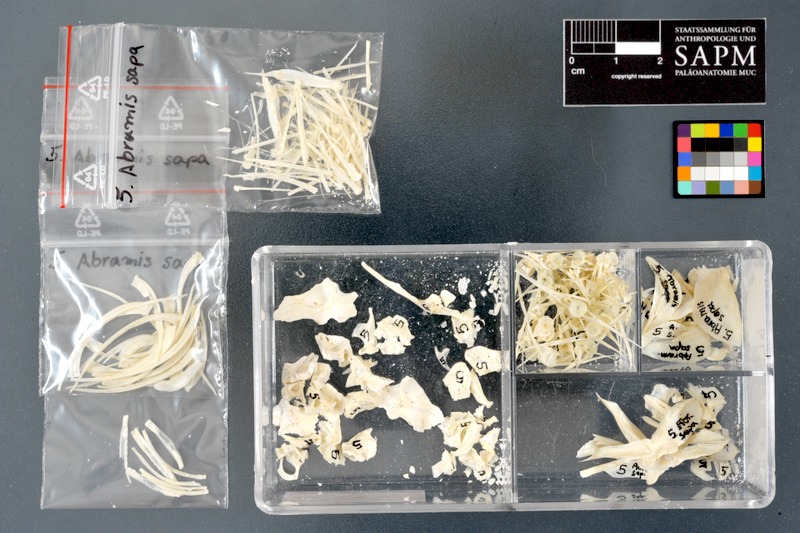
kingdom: Animalia
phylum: Chordata
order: Cypriniformes
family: Cyprinidae
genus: Ballerus
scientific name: Ballerus sapa
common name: White-eye bream
